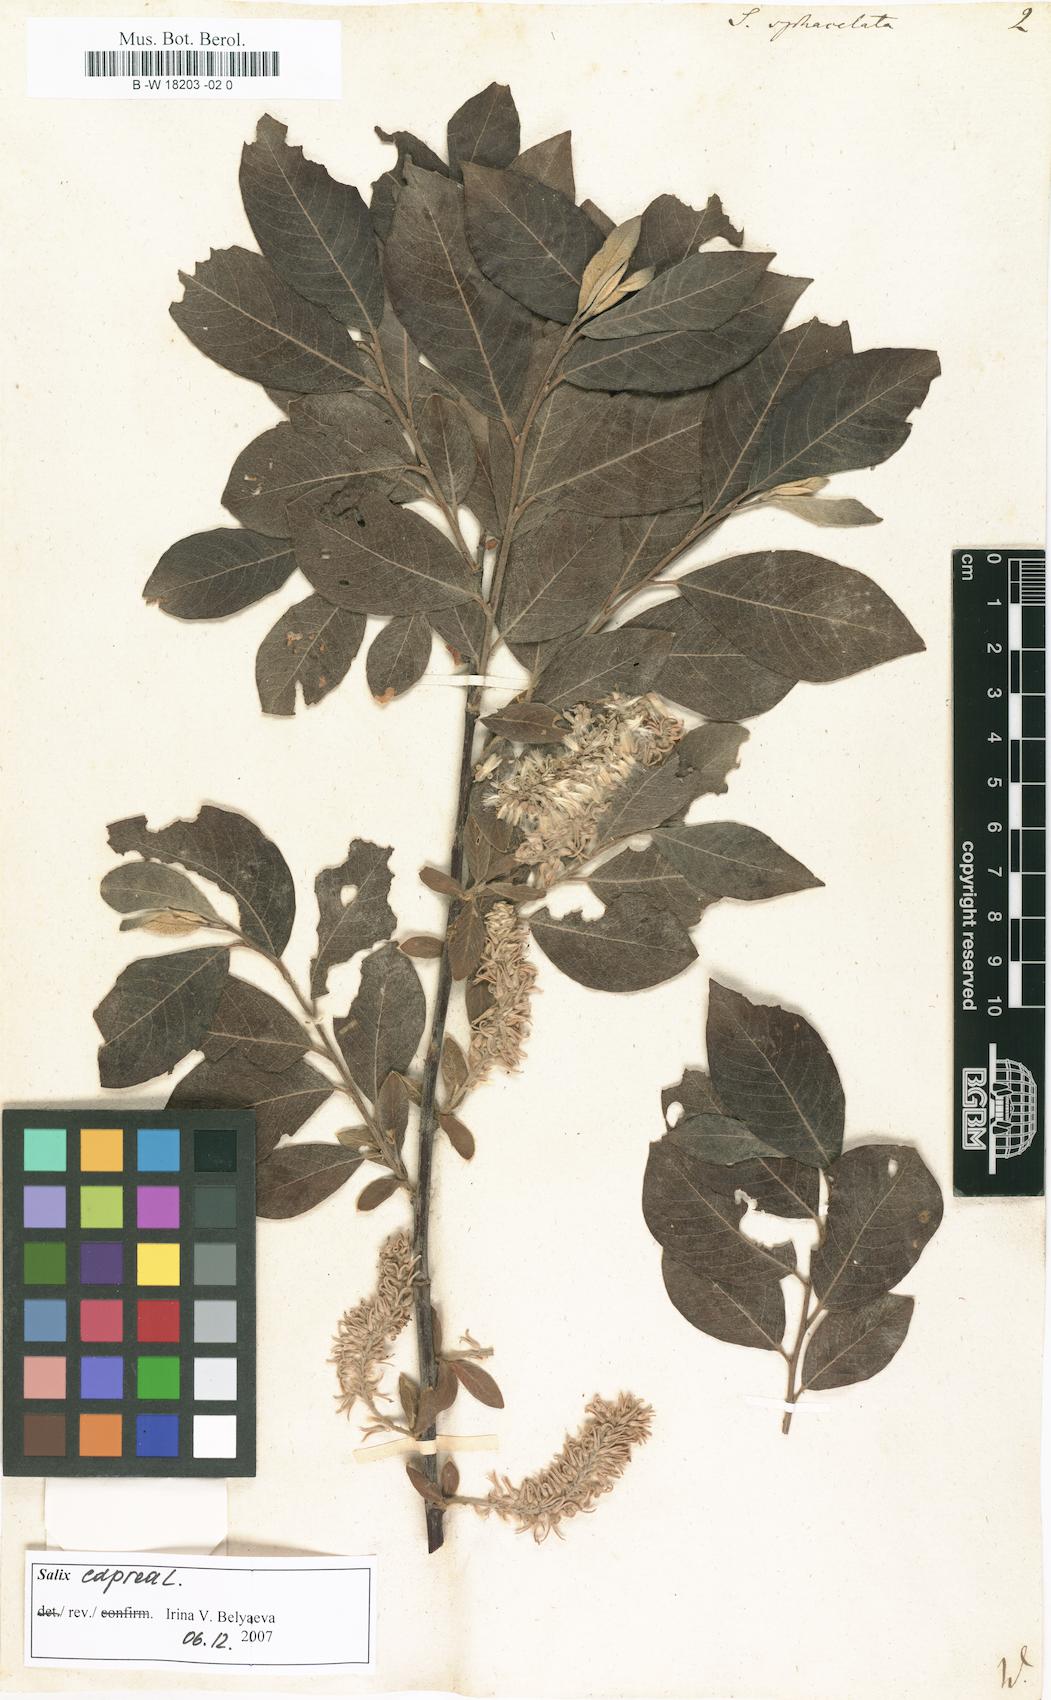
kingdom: Plantae
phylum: Tracheophyta
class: Magnoliopsida
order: Malpighiales
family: Salicaceae
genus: Salix
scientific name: Salix
